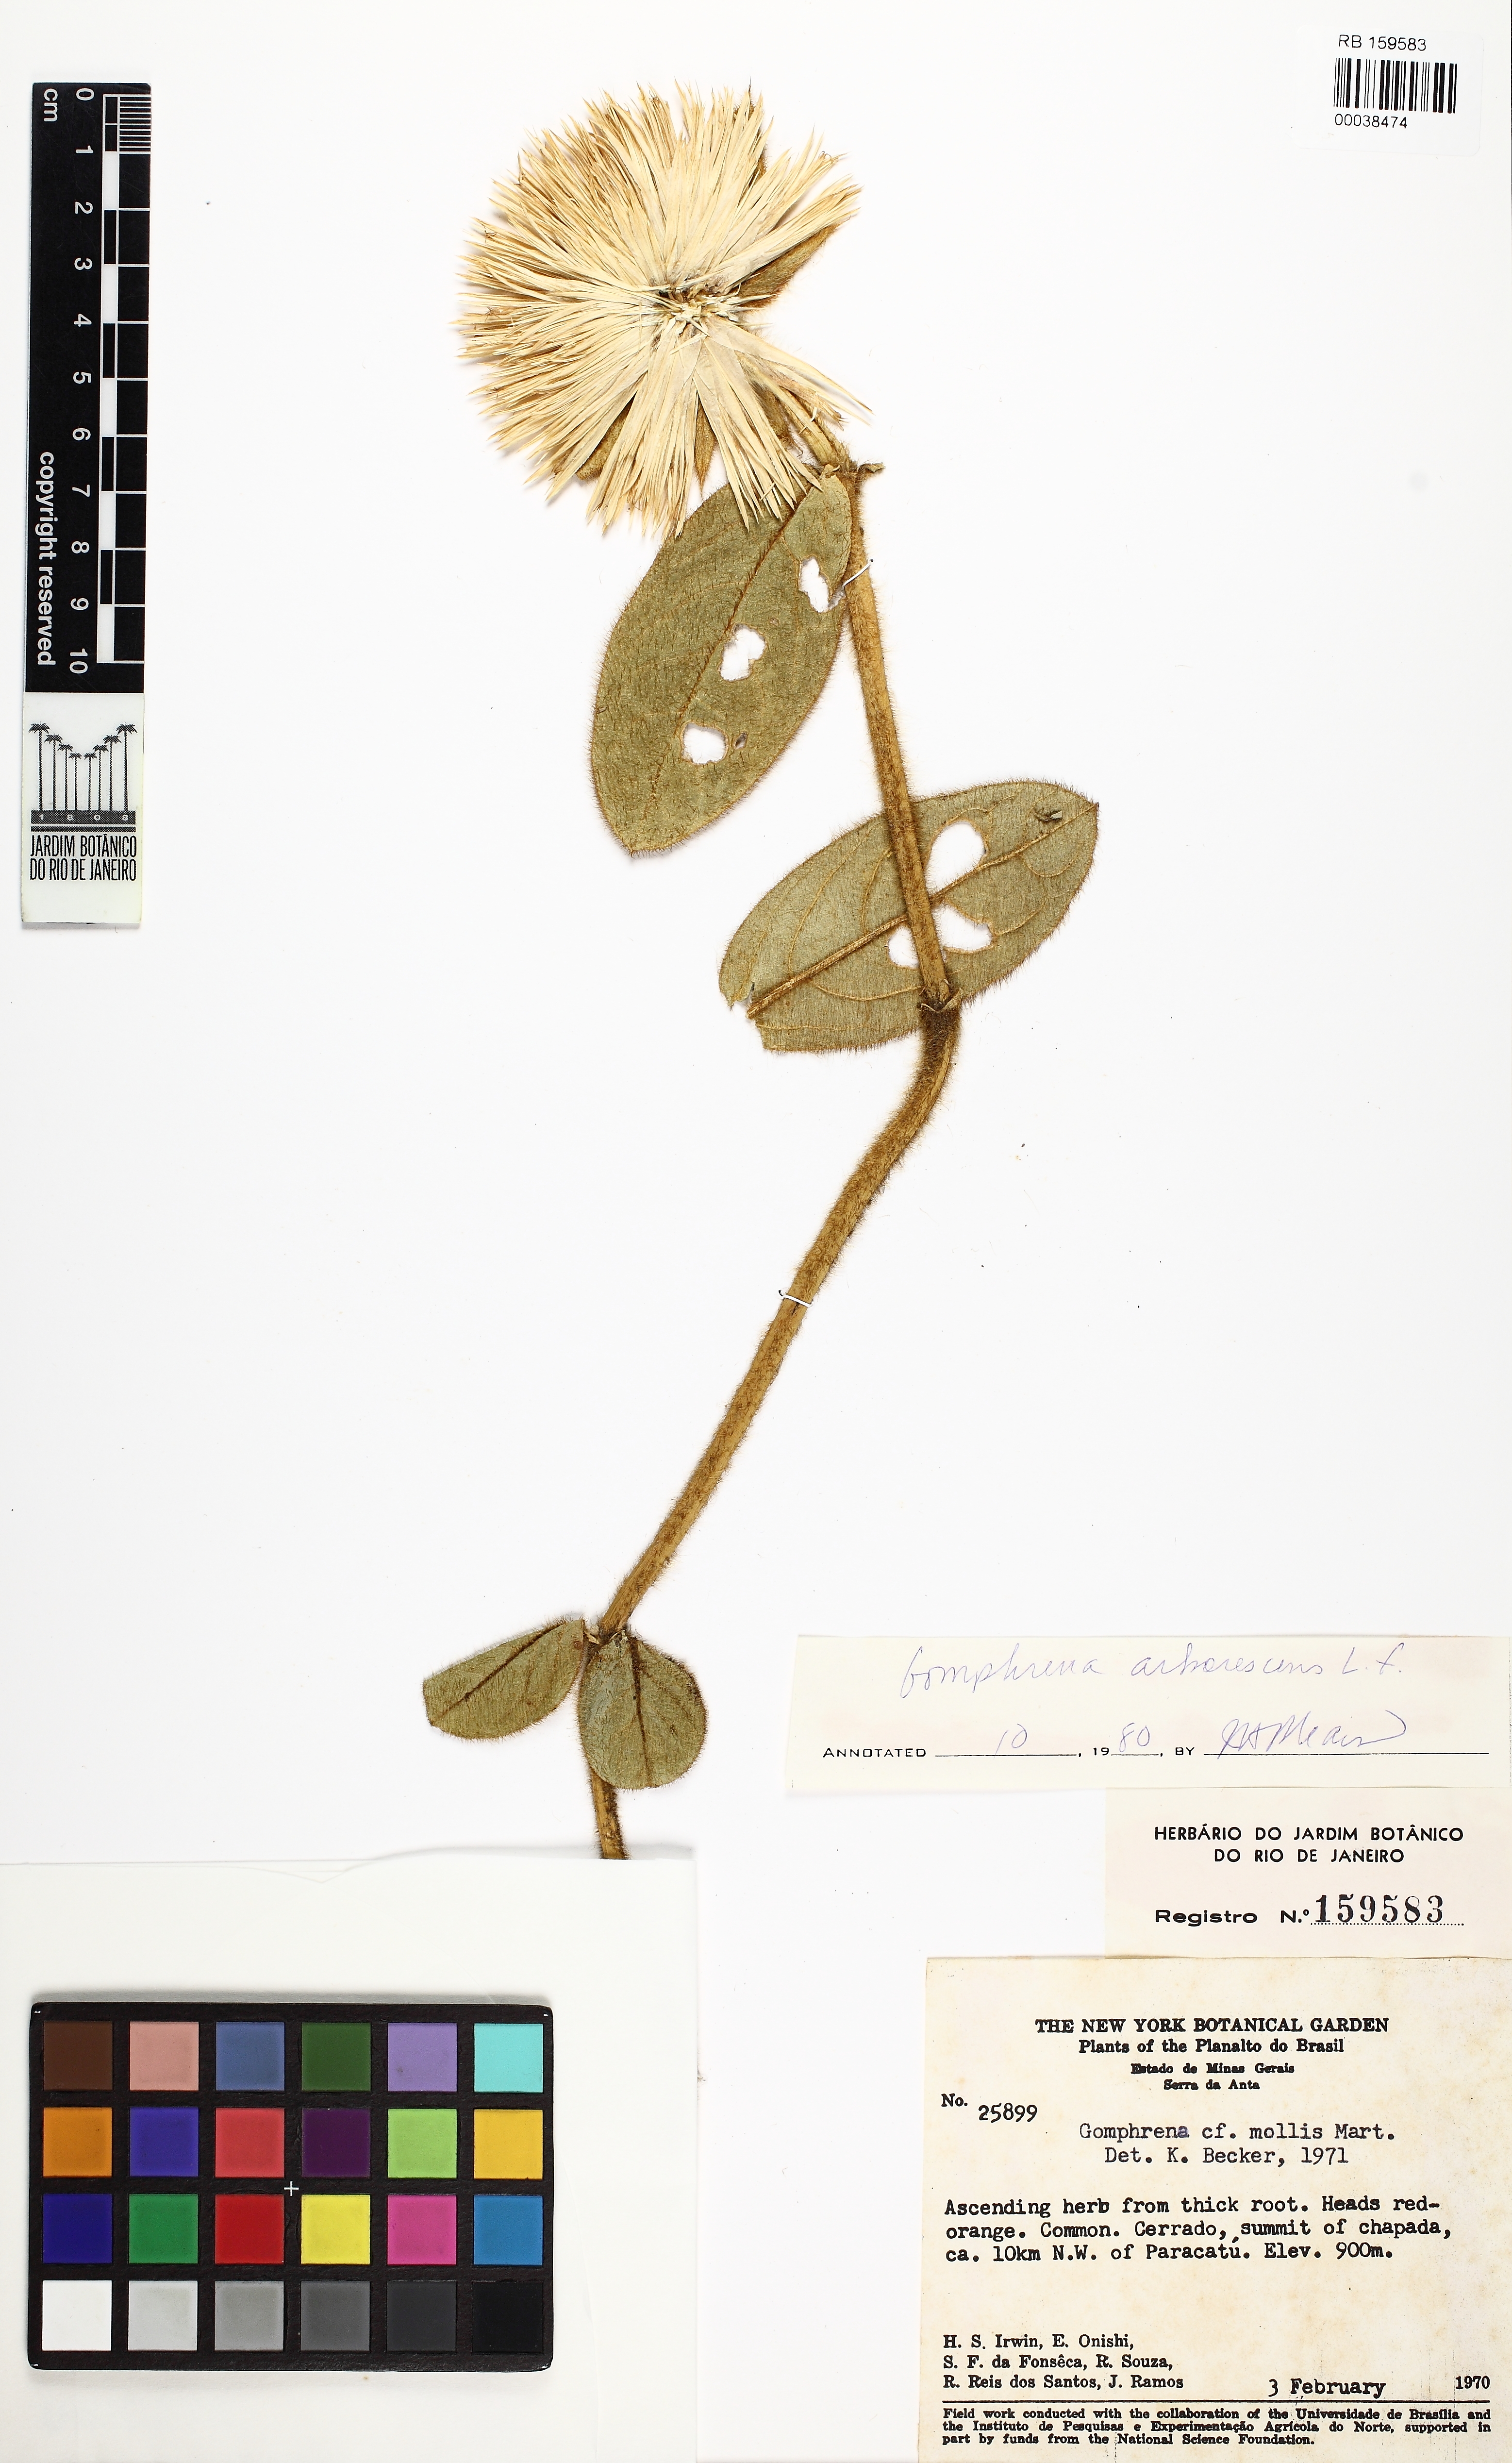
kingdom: Plantae
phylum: Tracheophyta
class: Magnoliopsida
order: Caryophyllales
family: Amaranthaceae
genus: Gomphrena
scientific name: Gomphrena arborescens
